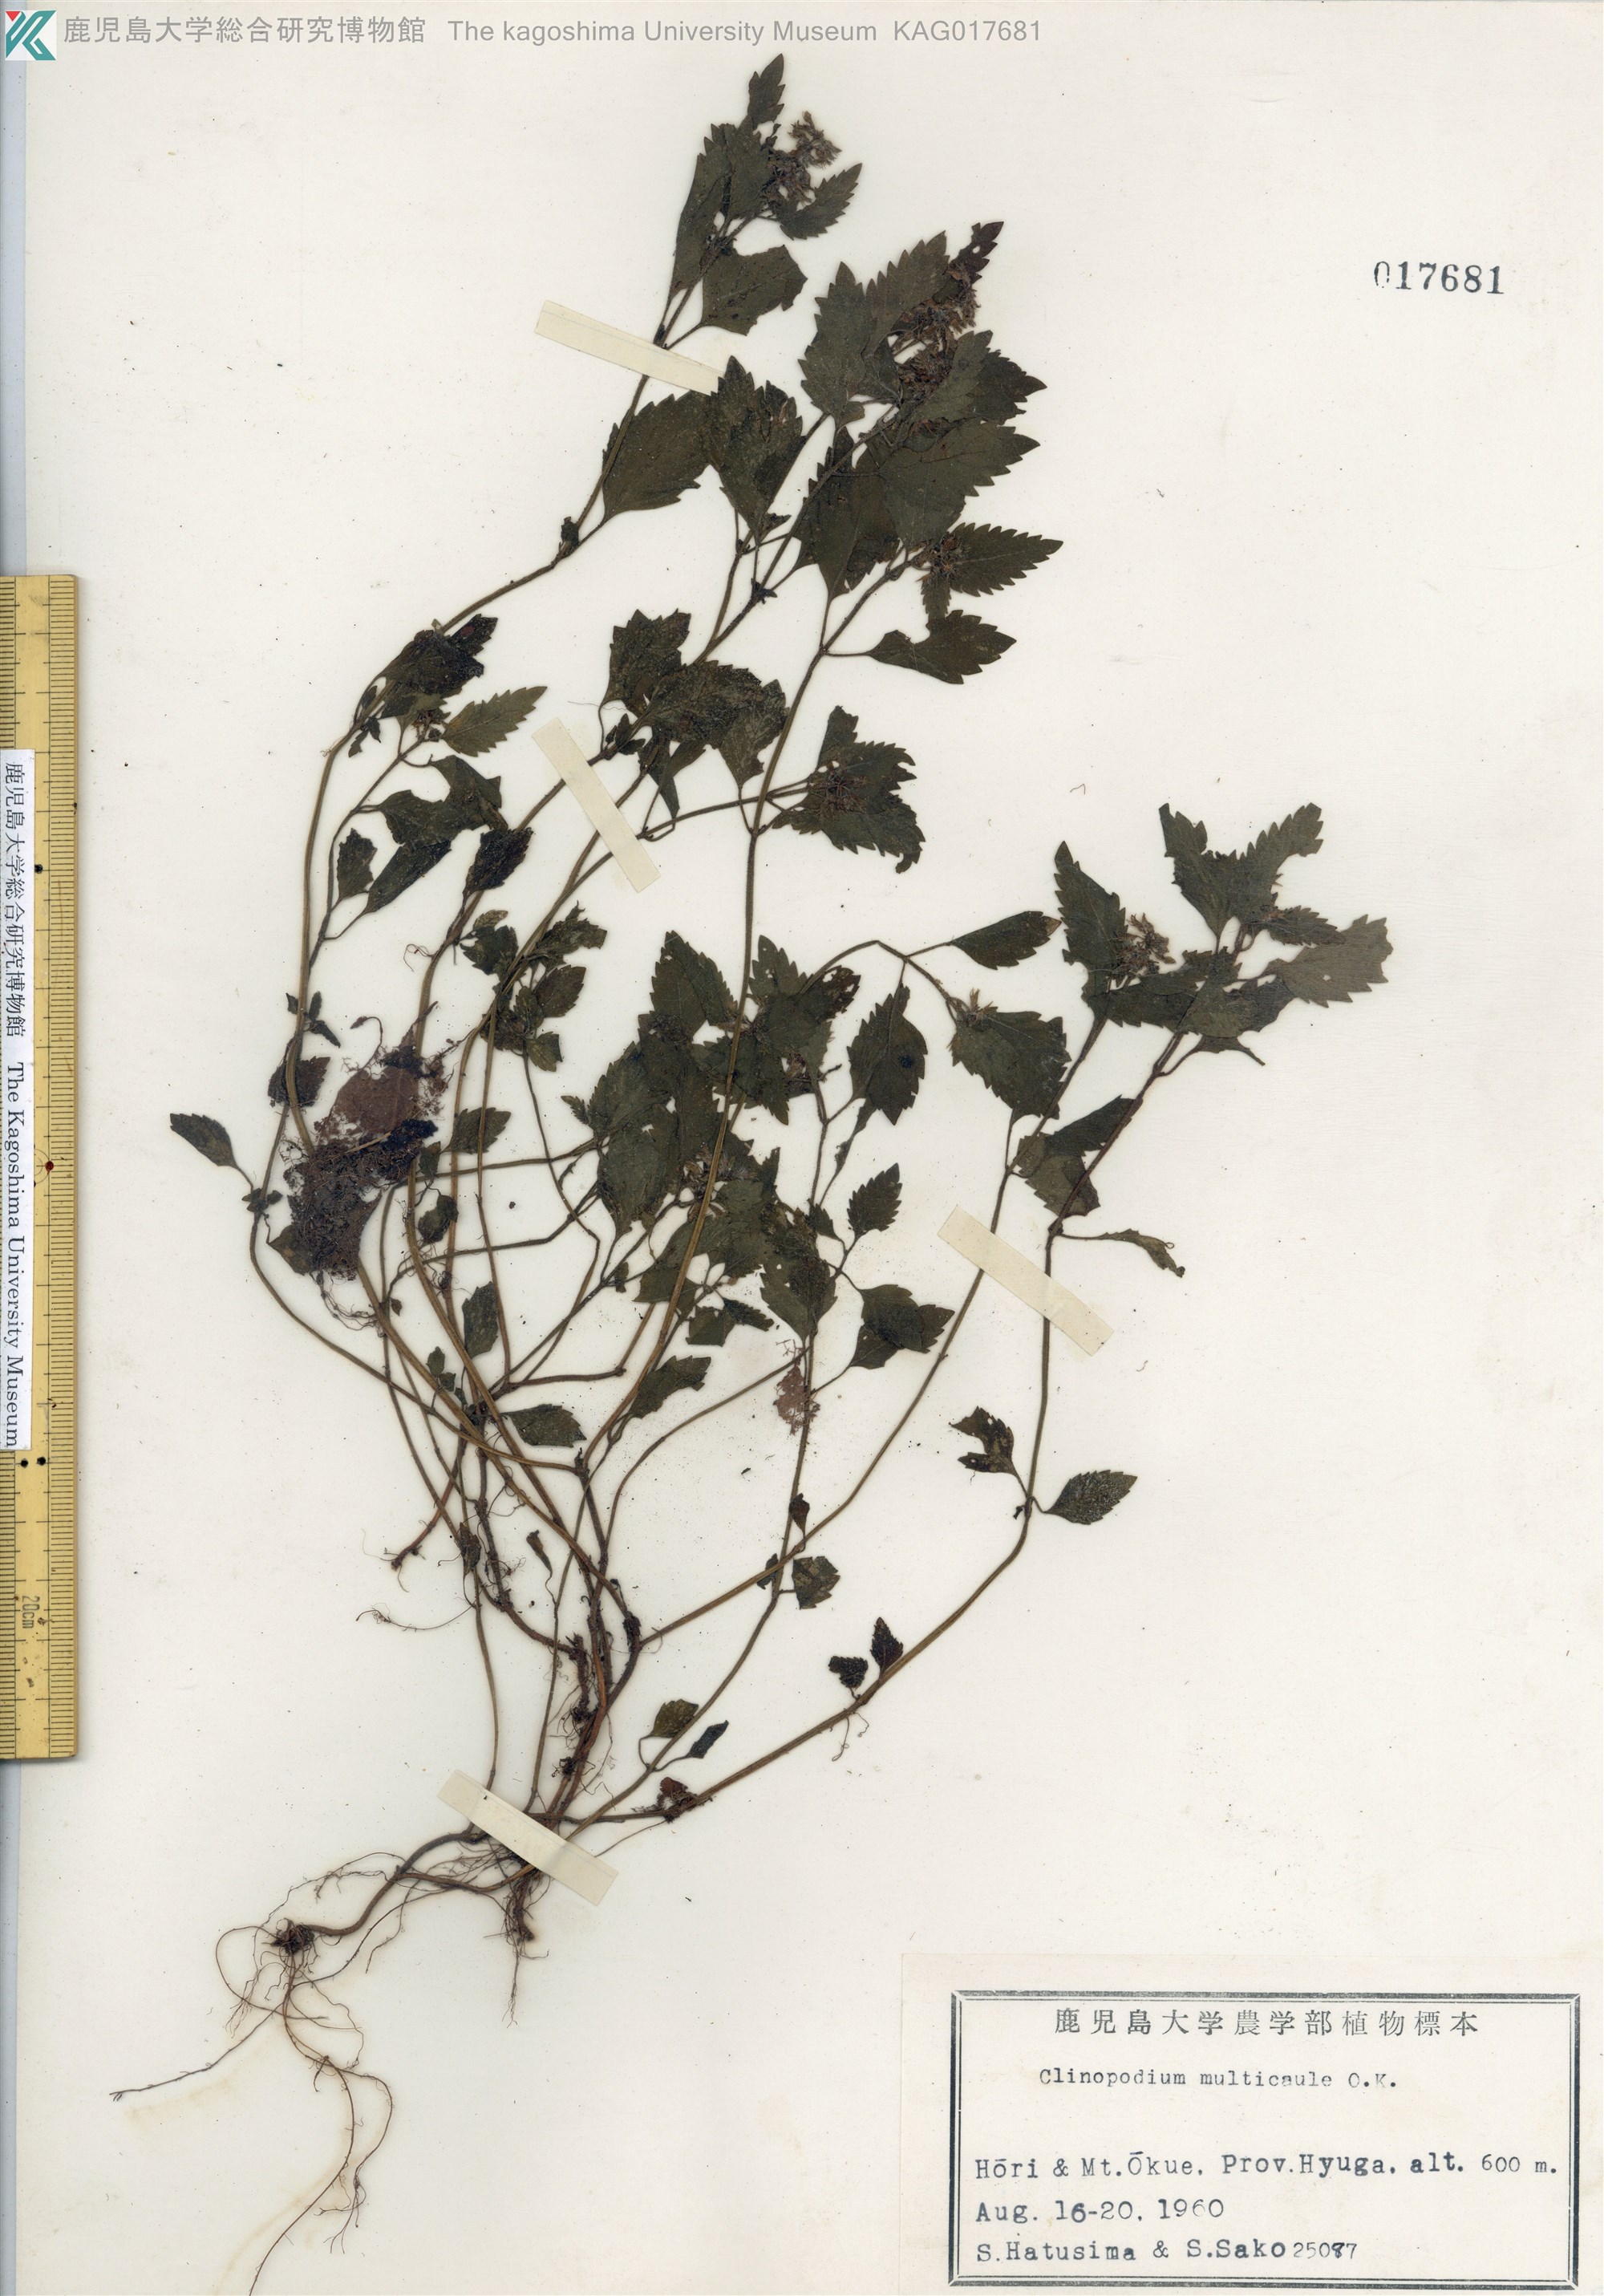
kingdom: Plantae
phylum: Tracheophyta
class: Magnoliopsida
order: Lamiales
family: Lamiaceae
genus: Clinopodium
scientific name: Clinopodium multicaule
